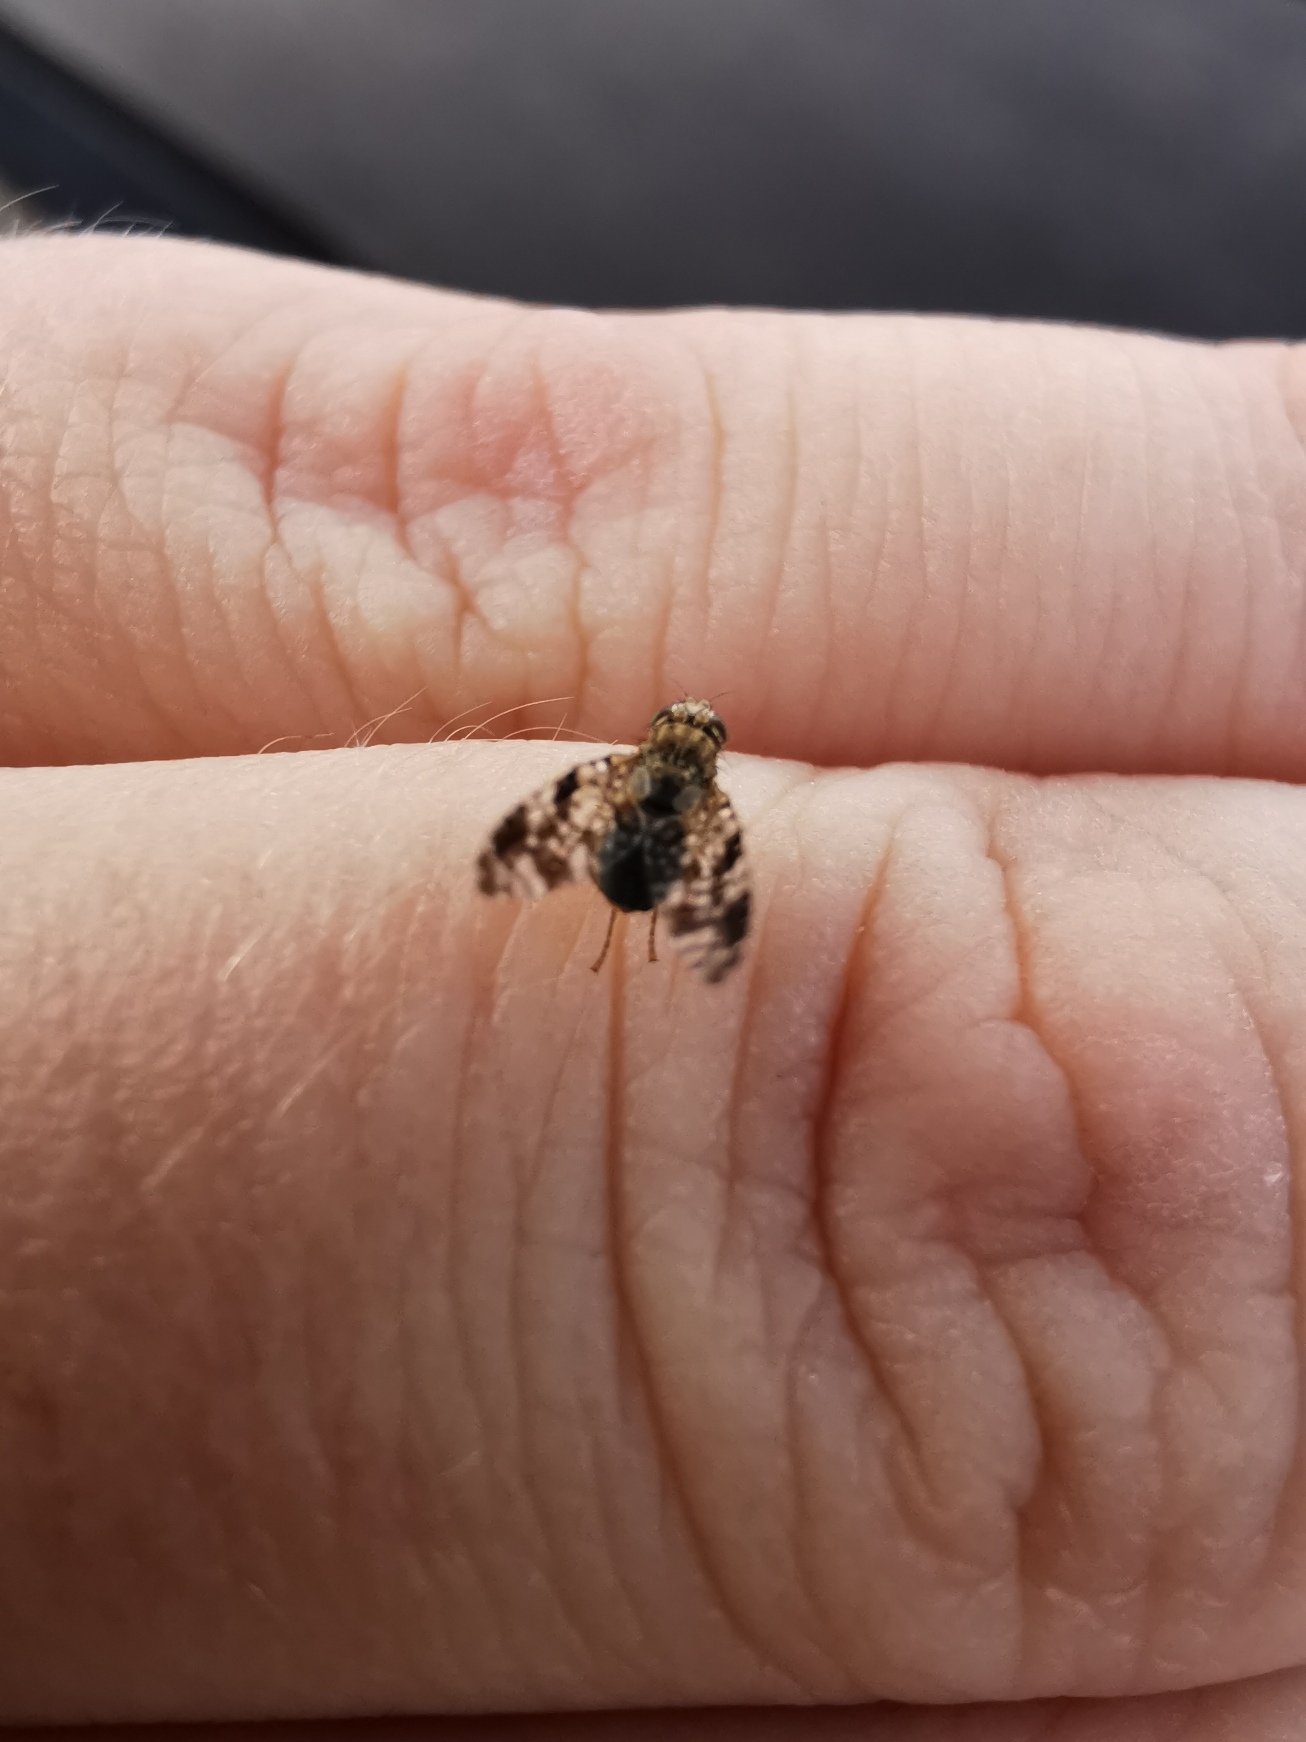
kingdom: Animalia
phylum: Arthropoda
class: Insecta
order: Diptera
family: Tephritidae
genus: Tephritis
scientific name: Tephritis vespertina
